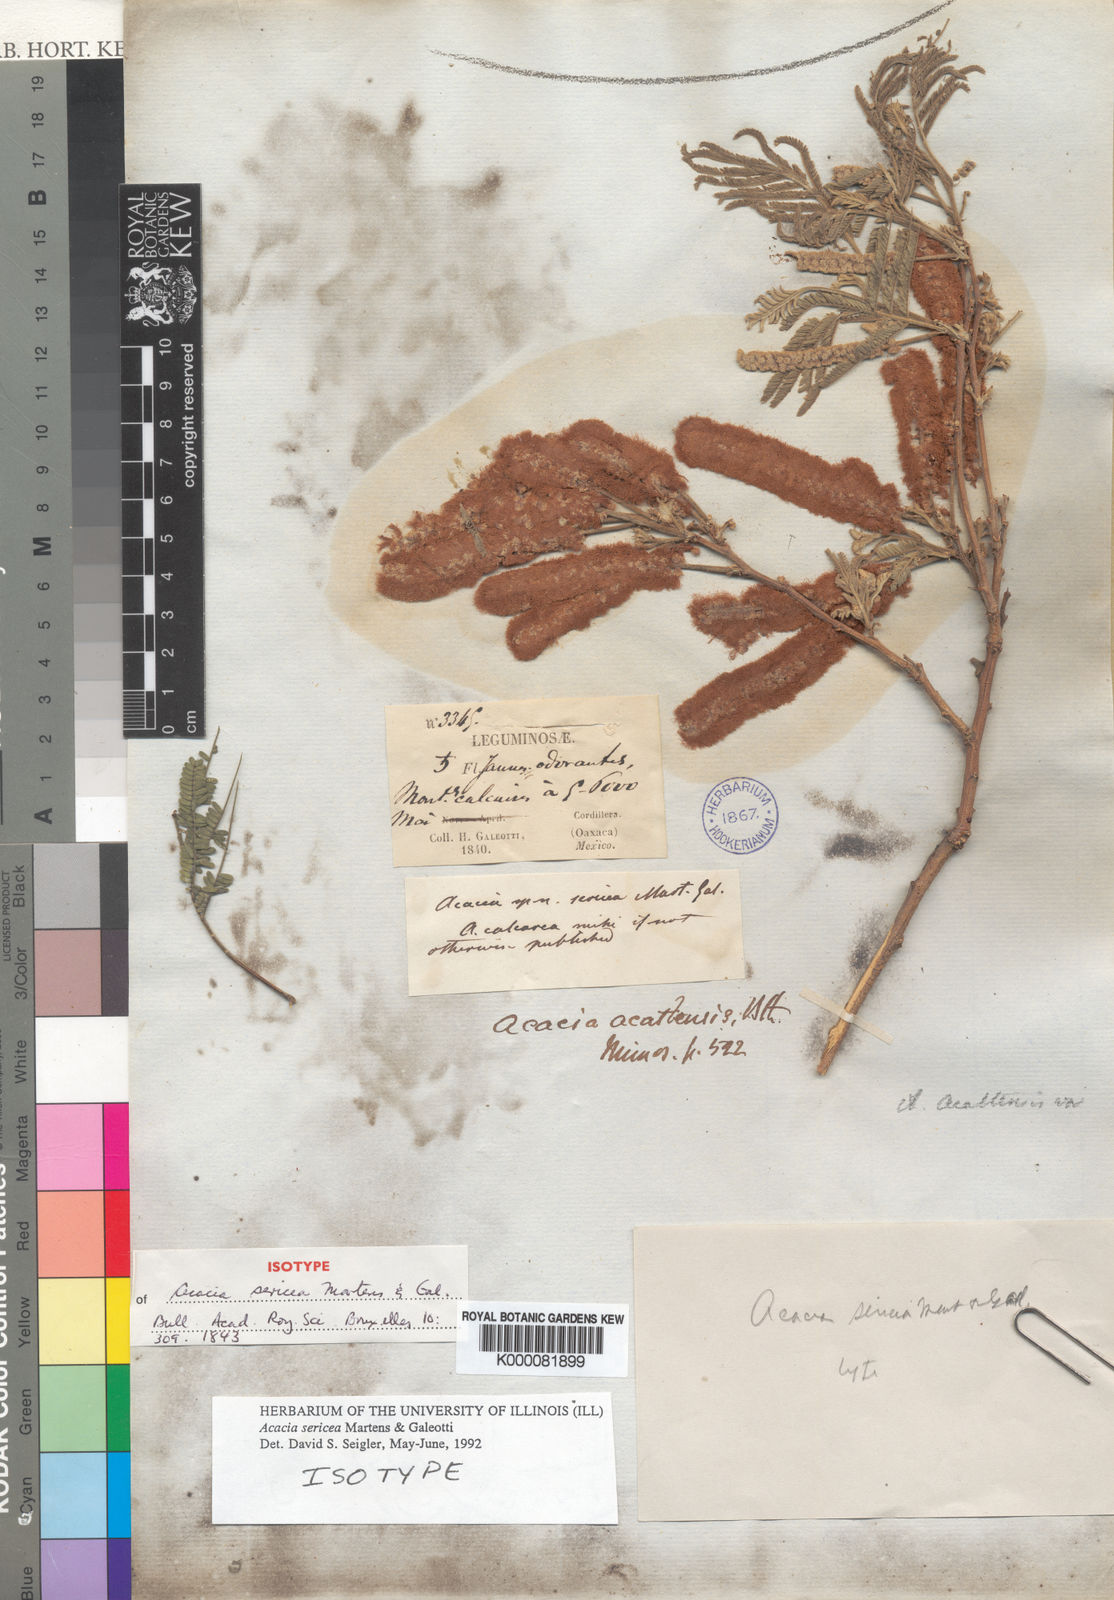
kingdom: Plantae
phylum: Tracheophyta
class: Magnoliopsida
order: Fabales
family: Fabaceae
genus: Mariosousa
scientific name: Mariosousa sericea
